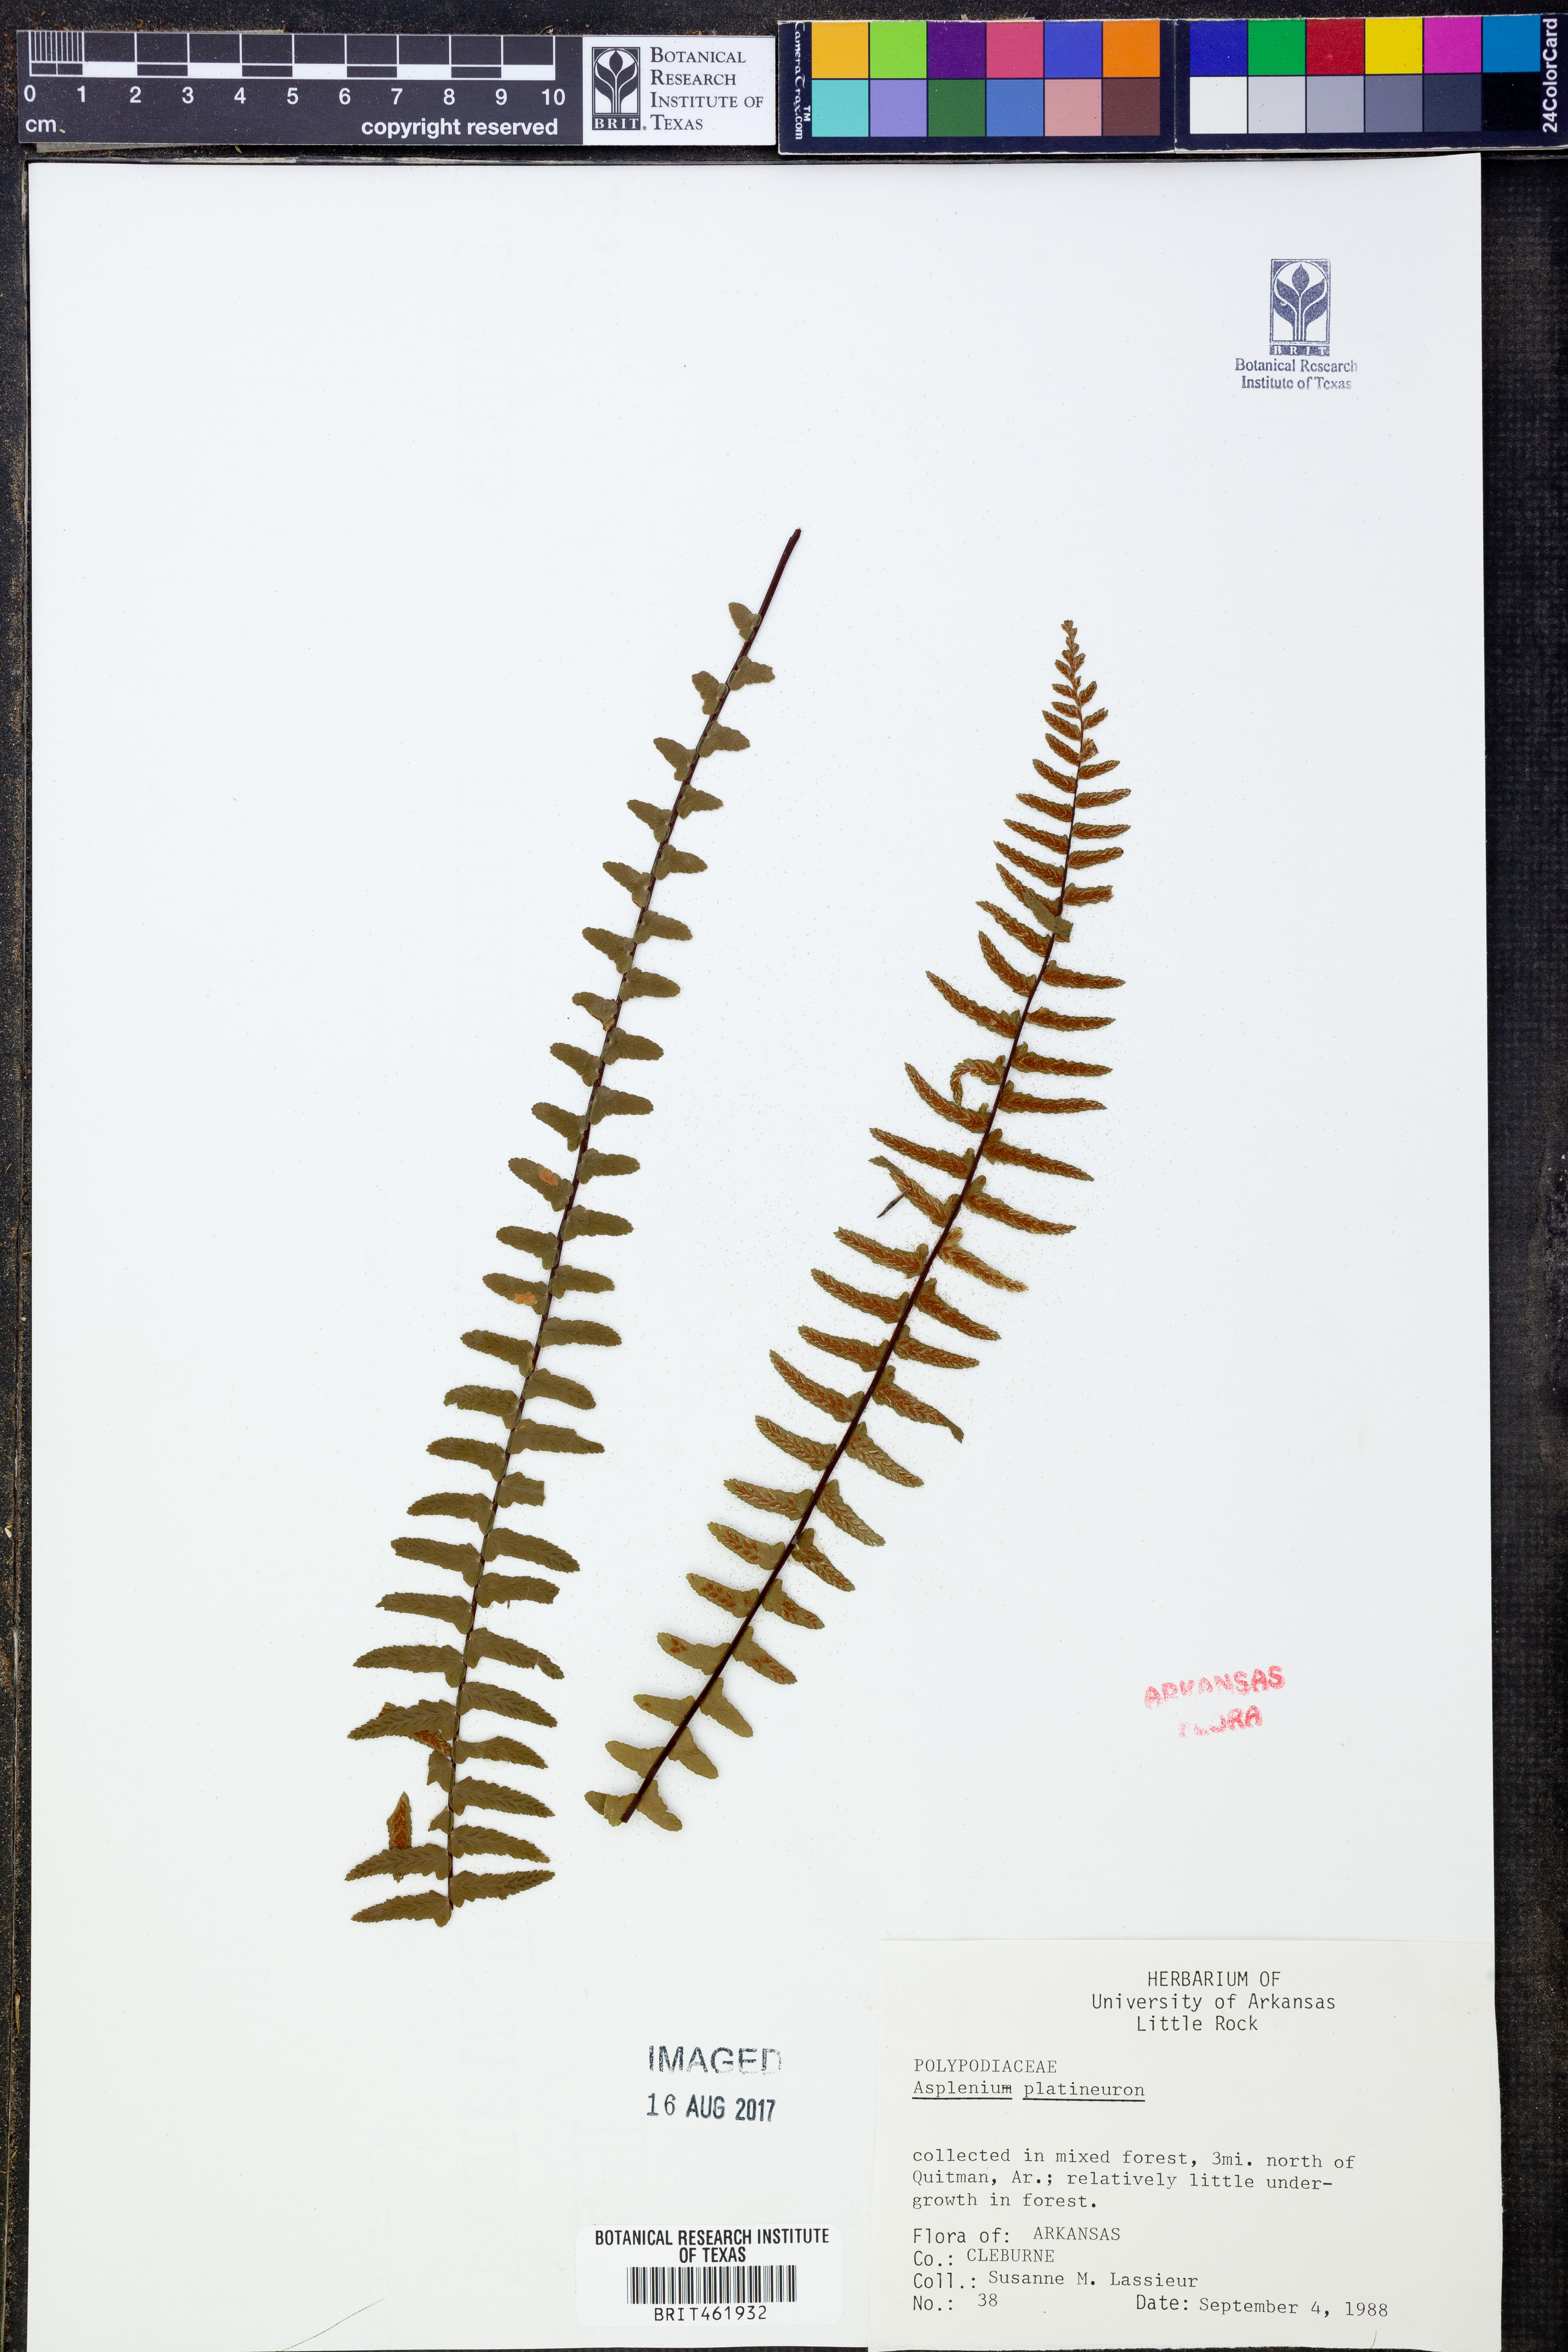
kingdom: Plantae
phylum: Tracheophyta
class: Polypodiopsida
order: Polypodiales
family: Aspleniaceae
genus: Asplenium
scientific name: Asplenium platyneuron
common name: Ebony spleenwort
